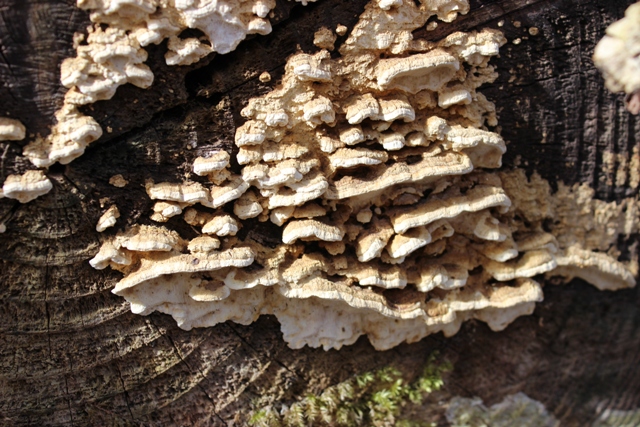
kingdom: Fungi
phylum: Basidiomycota
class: Agaricomycetes
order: Polyporales
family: Fomitopsidaceae
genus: Neoantrodia
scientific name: Neoantrodia serialis
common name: række-sejporesvamp
